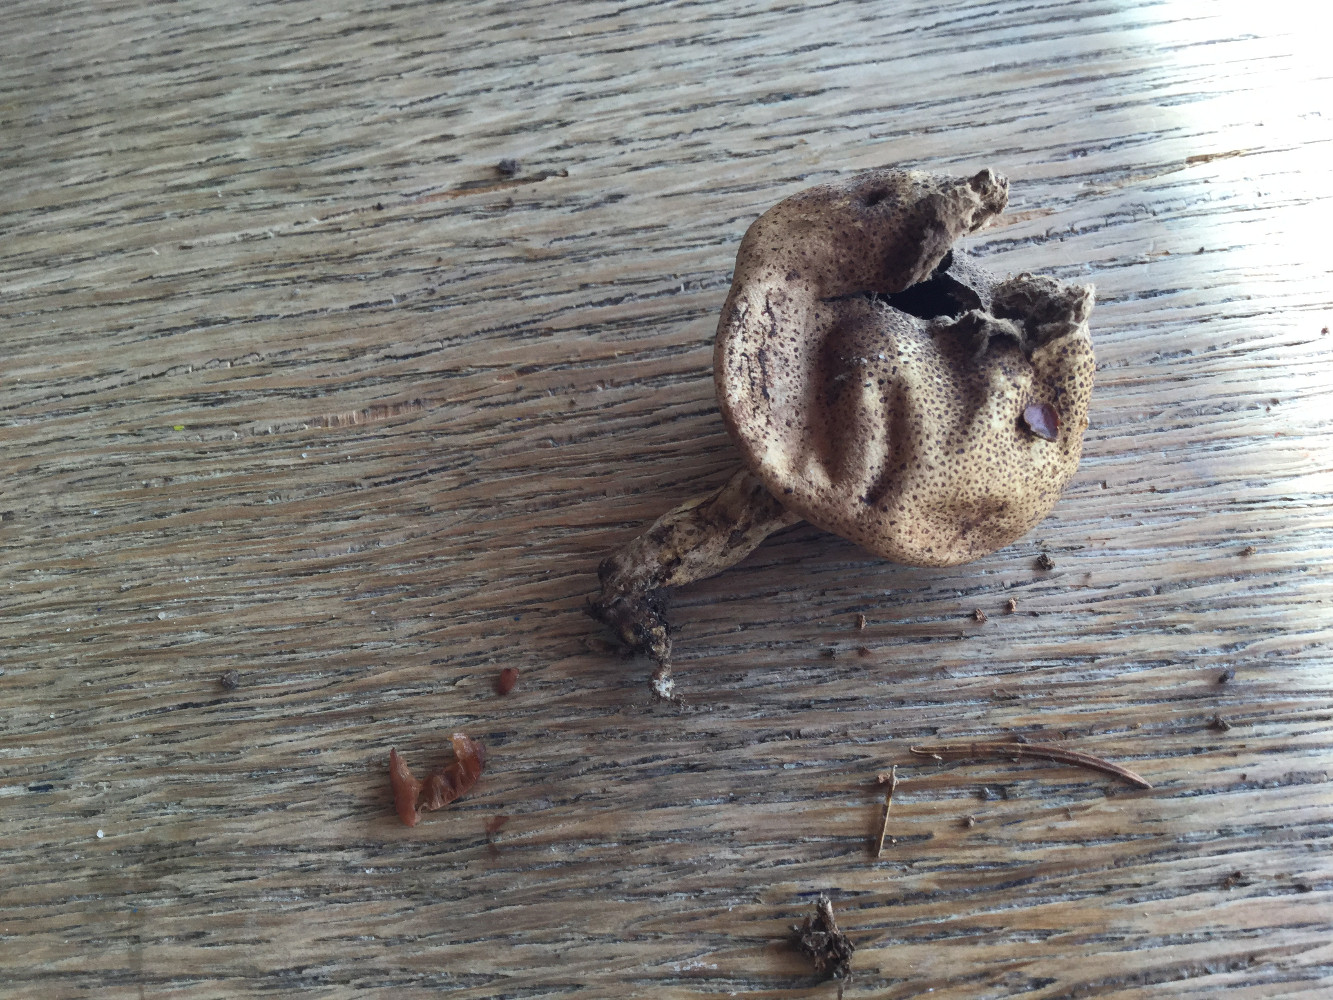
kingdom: Fungi
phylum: Basidiomycota
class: Agaricomycetes
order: Boletales
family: Sclerodermataceae
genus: Scleroderma
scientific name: Scleroderma verrucosum
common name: stilket bruskbold
